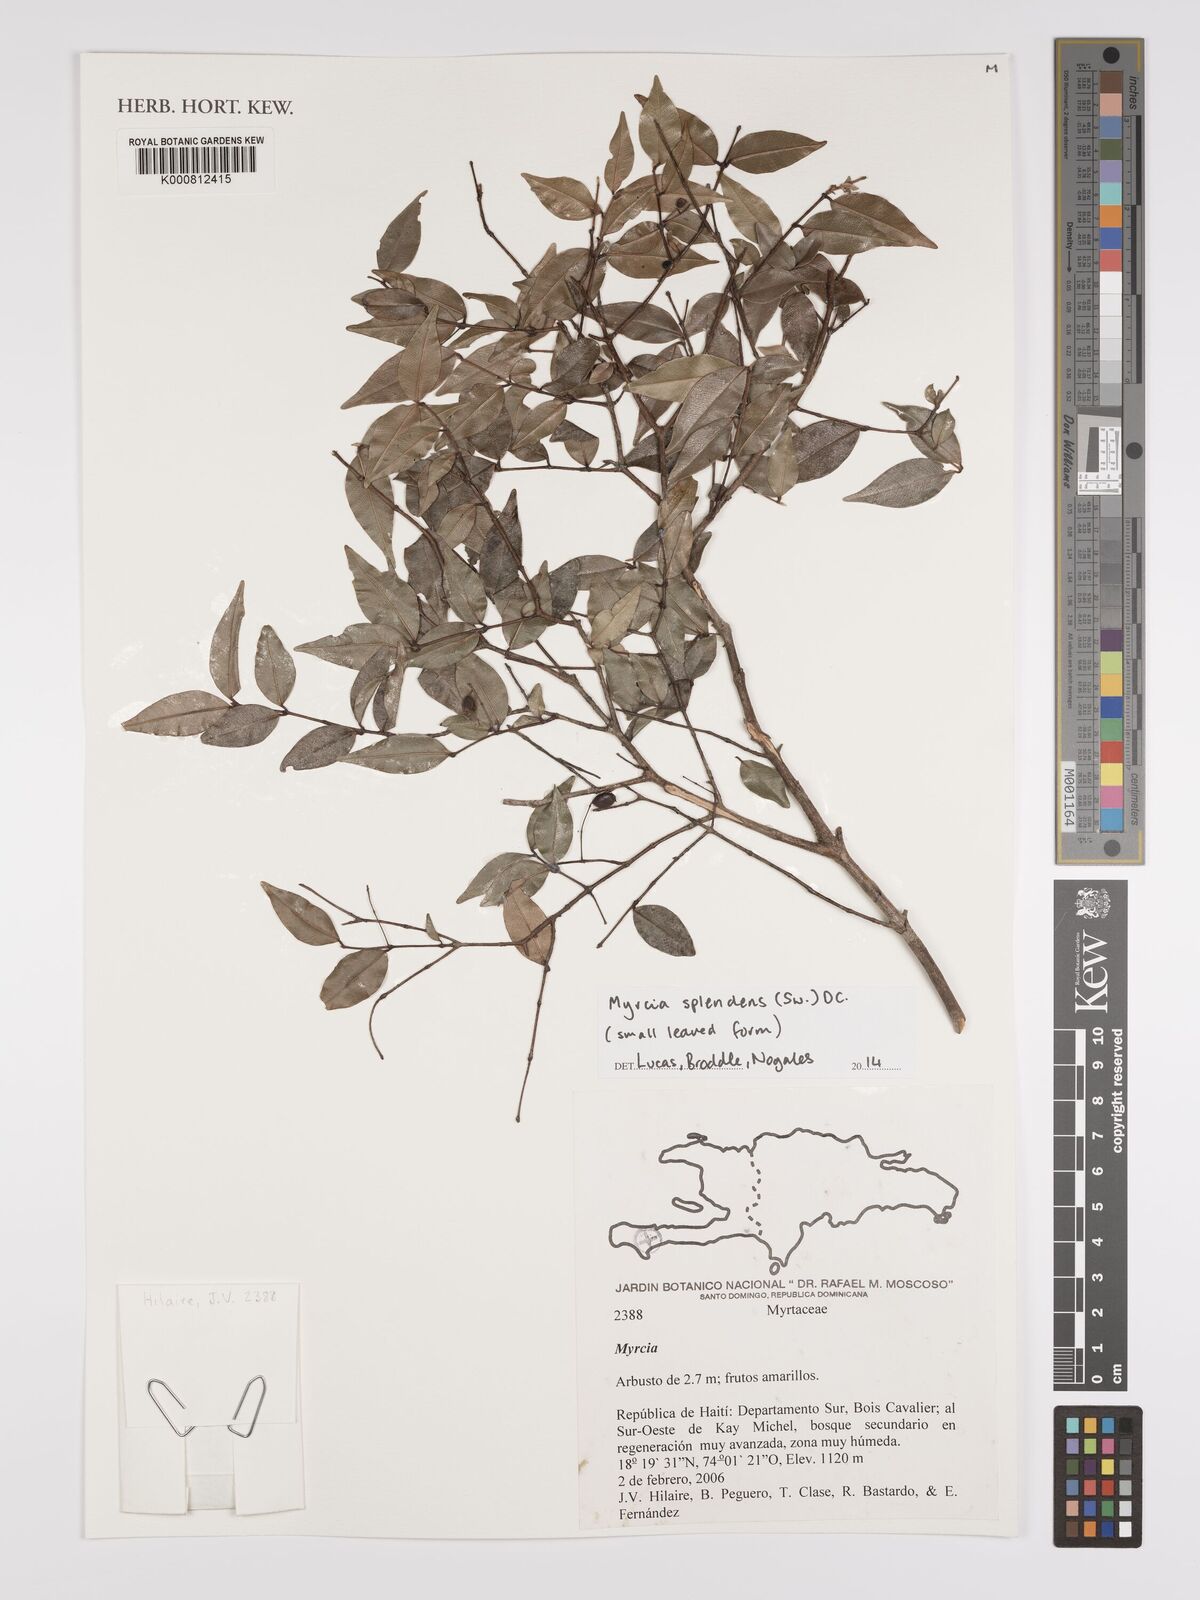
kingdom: Plantae
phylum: Tracheophyta
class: Magnoliopsida
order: Myrtales
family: Myrtaceae
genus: Myrcia
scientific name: Myrcia splendens
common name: Surinam cherry
